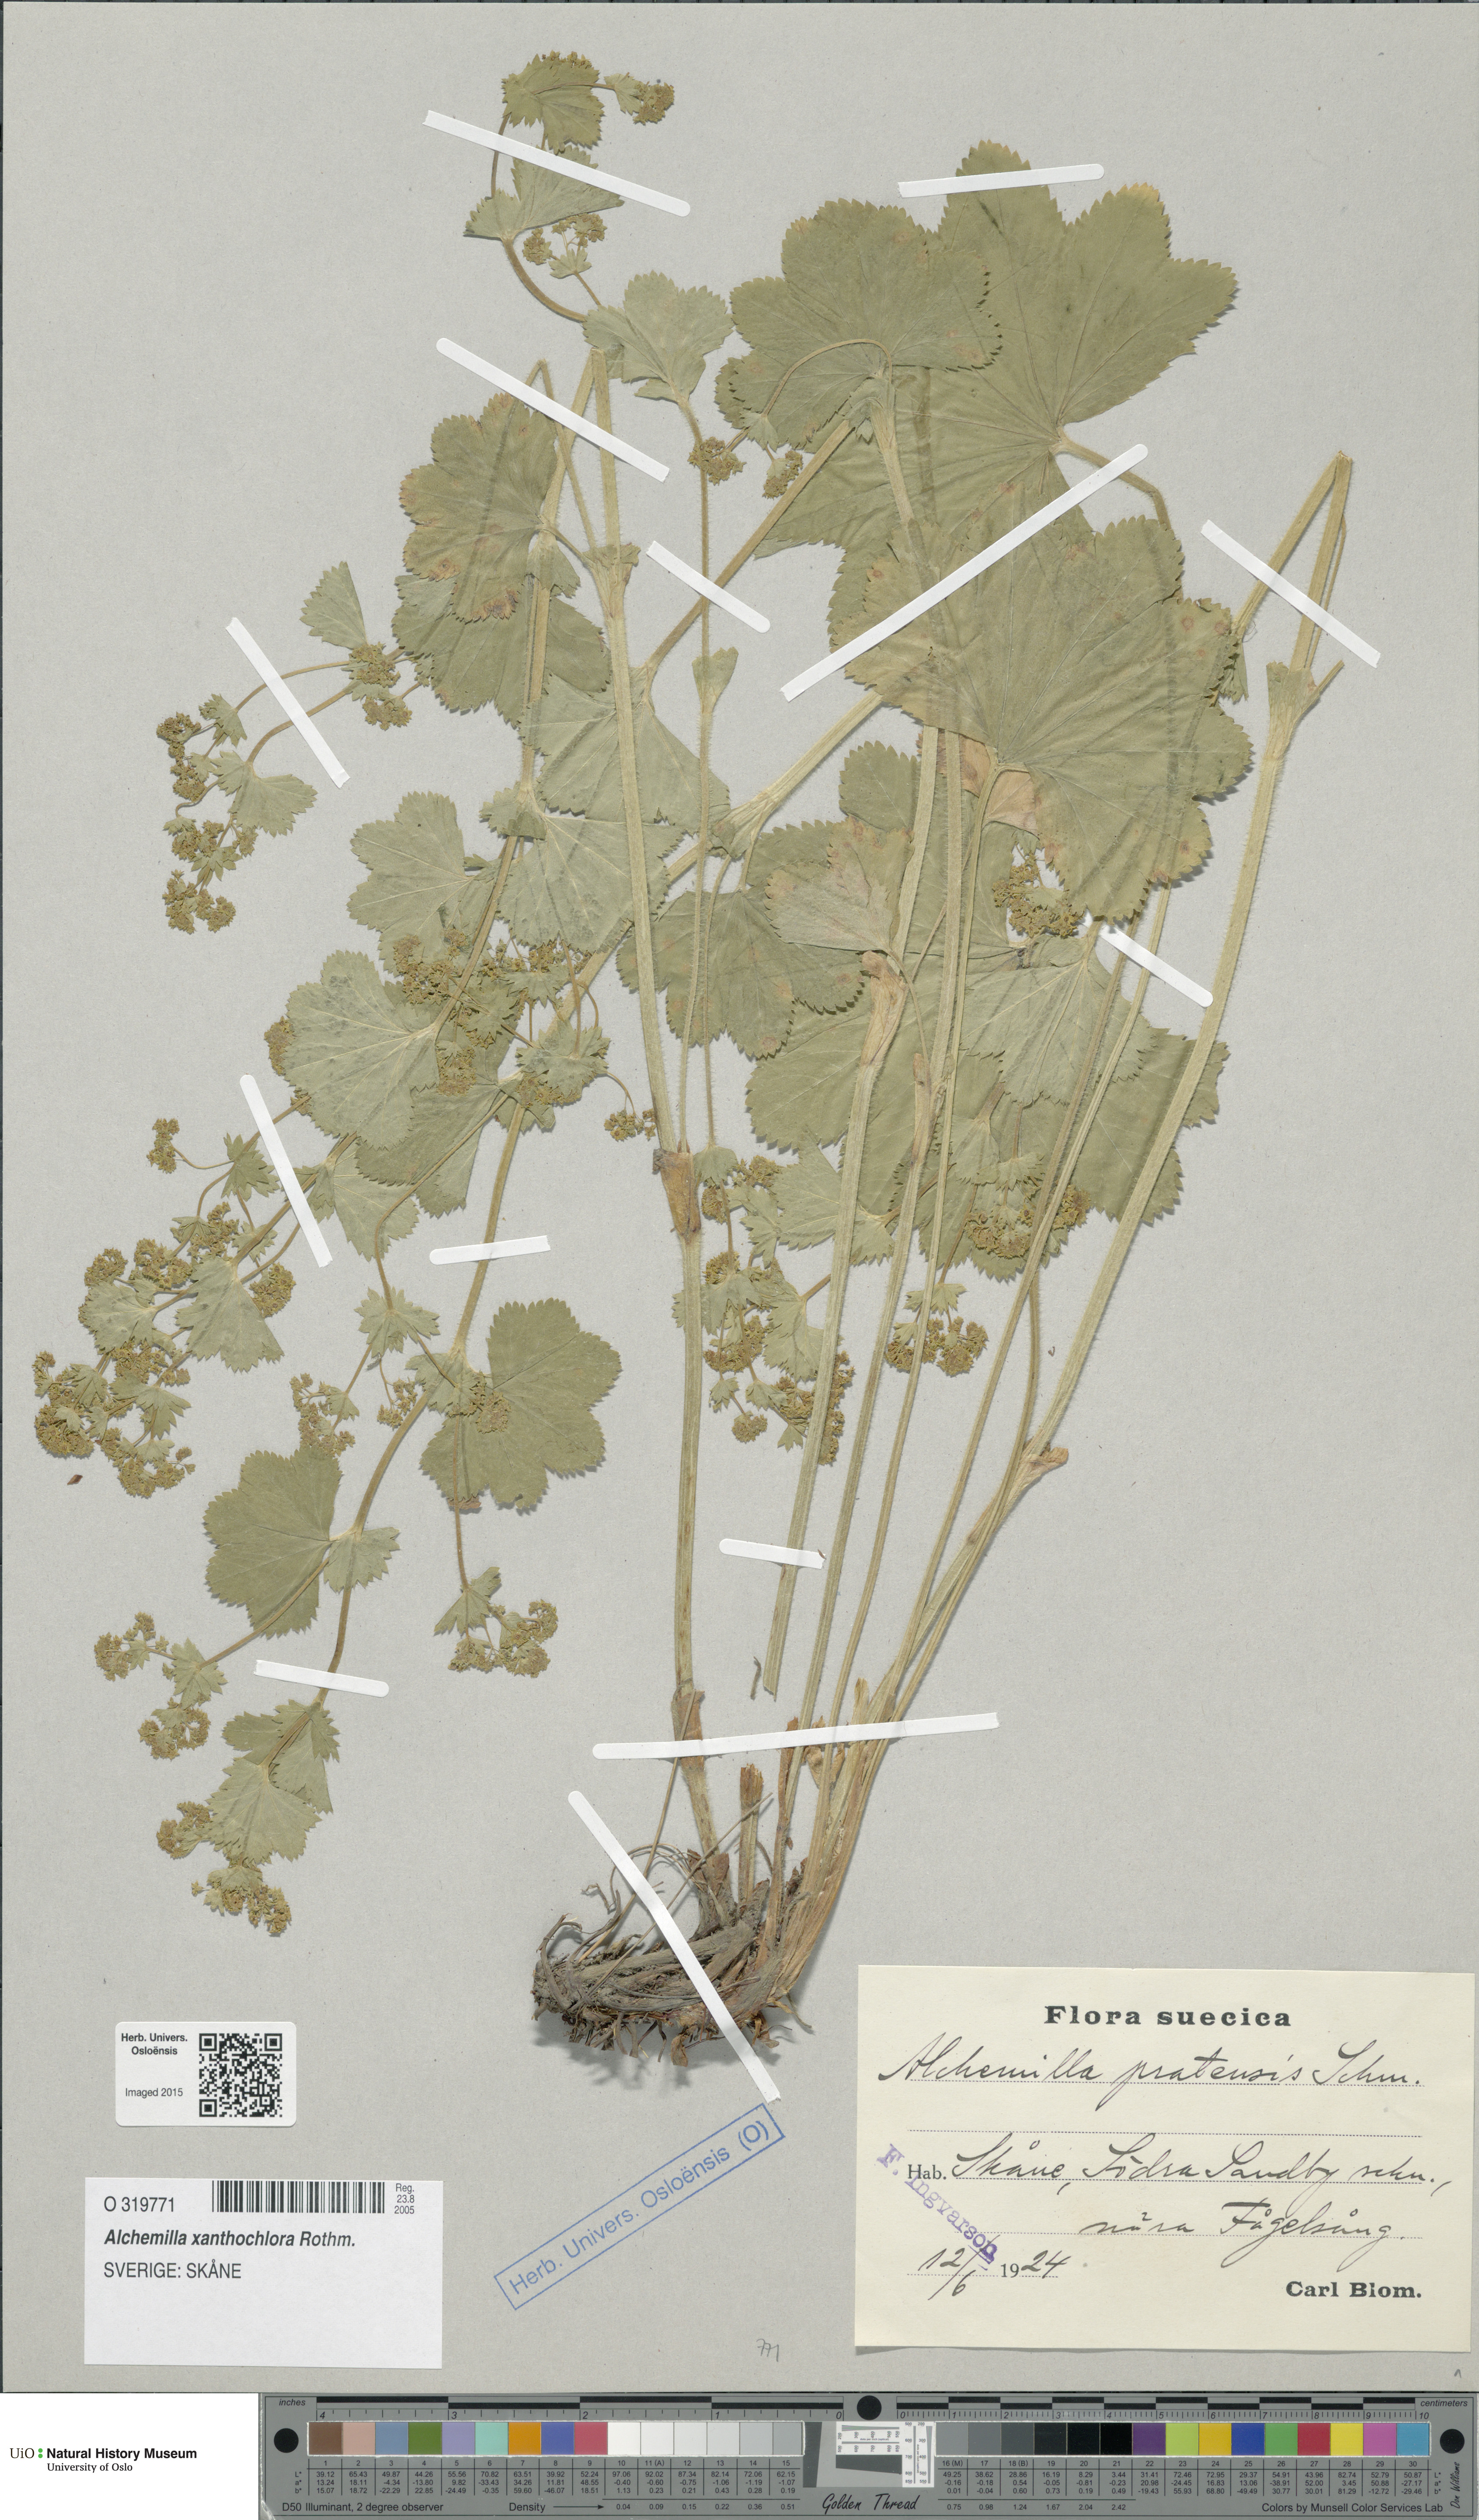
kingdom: Plantae
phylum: Tracheophyta
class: Magnoliopsida
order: Rosales
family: Rosaceae
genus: Alchemilla
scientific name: Alchemilla xanthochlora
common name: Intermediate lady's-mantle
